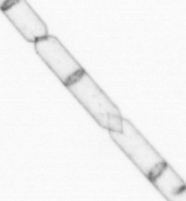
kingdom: Chromista
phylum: Ochrophyta
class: Bacillariophyceae
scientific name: Bacillariophyceae
